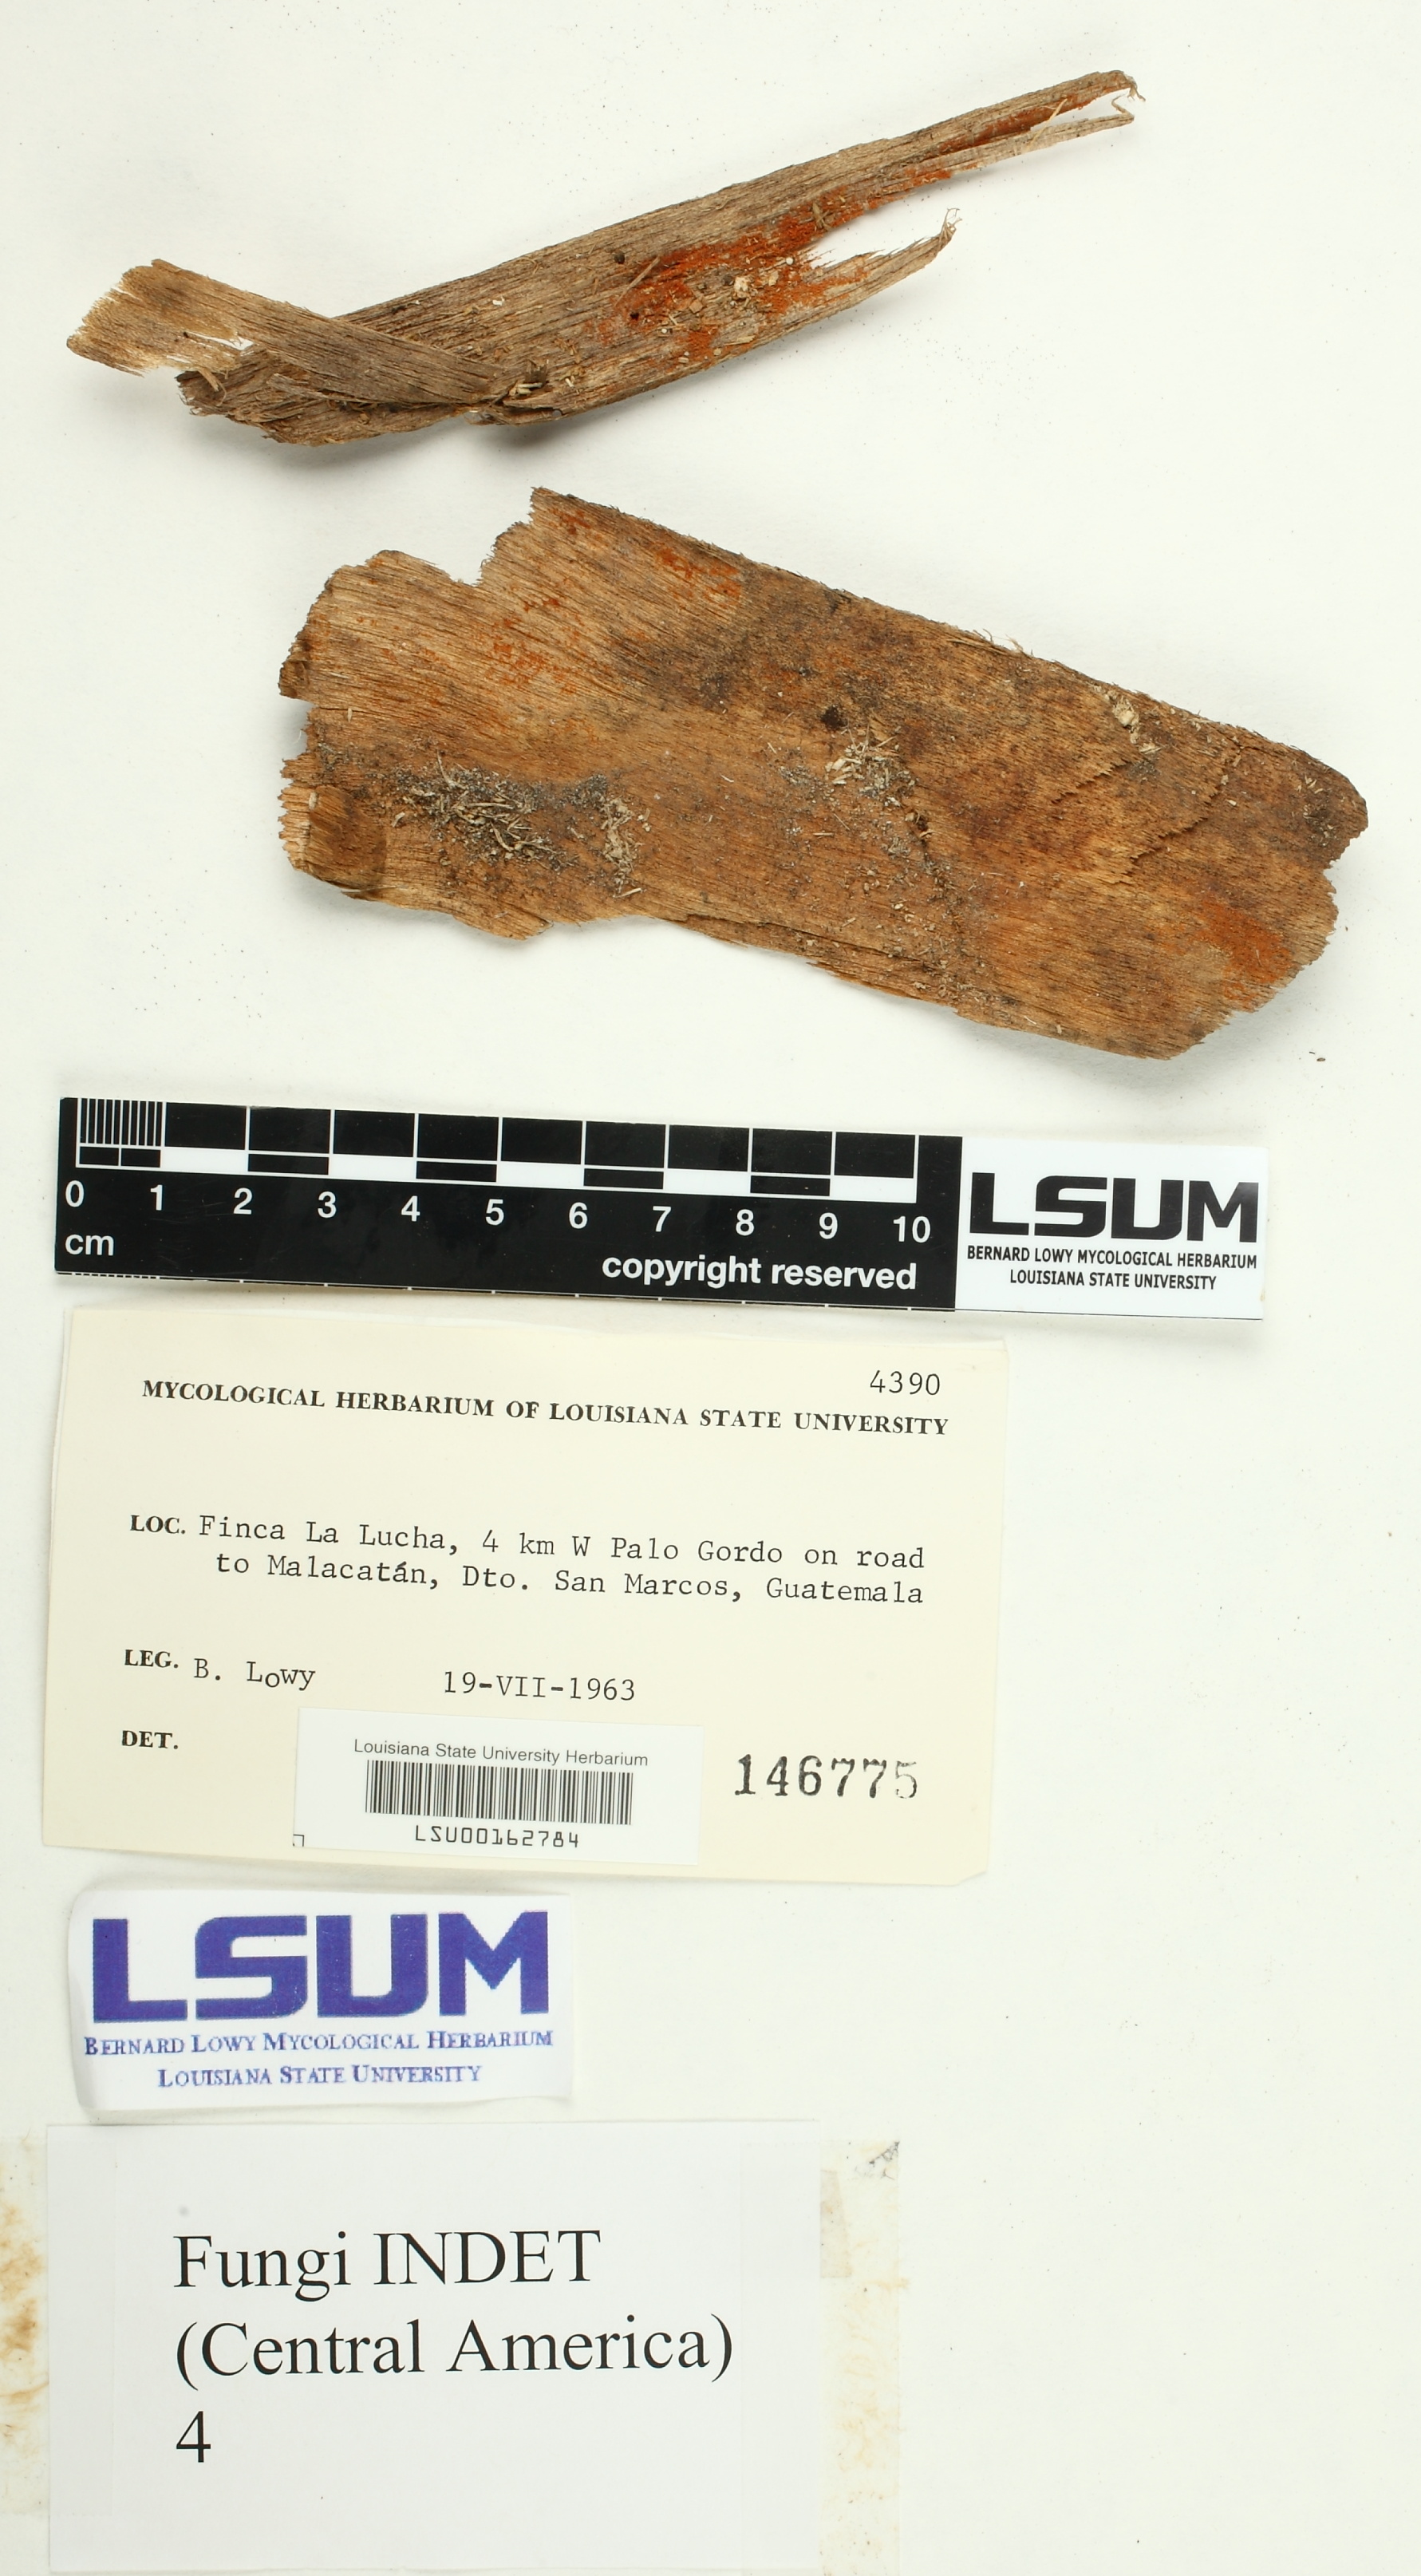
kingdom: Fungi
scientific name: Fungi
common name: Fungi
